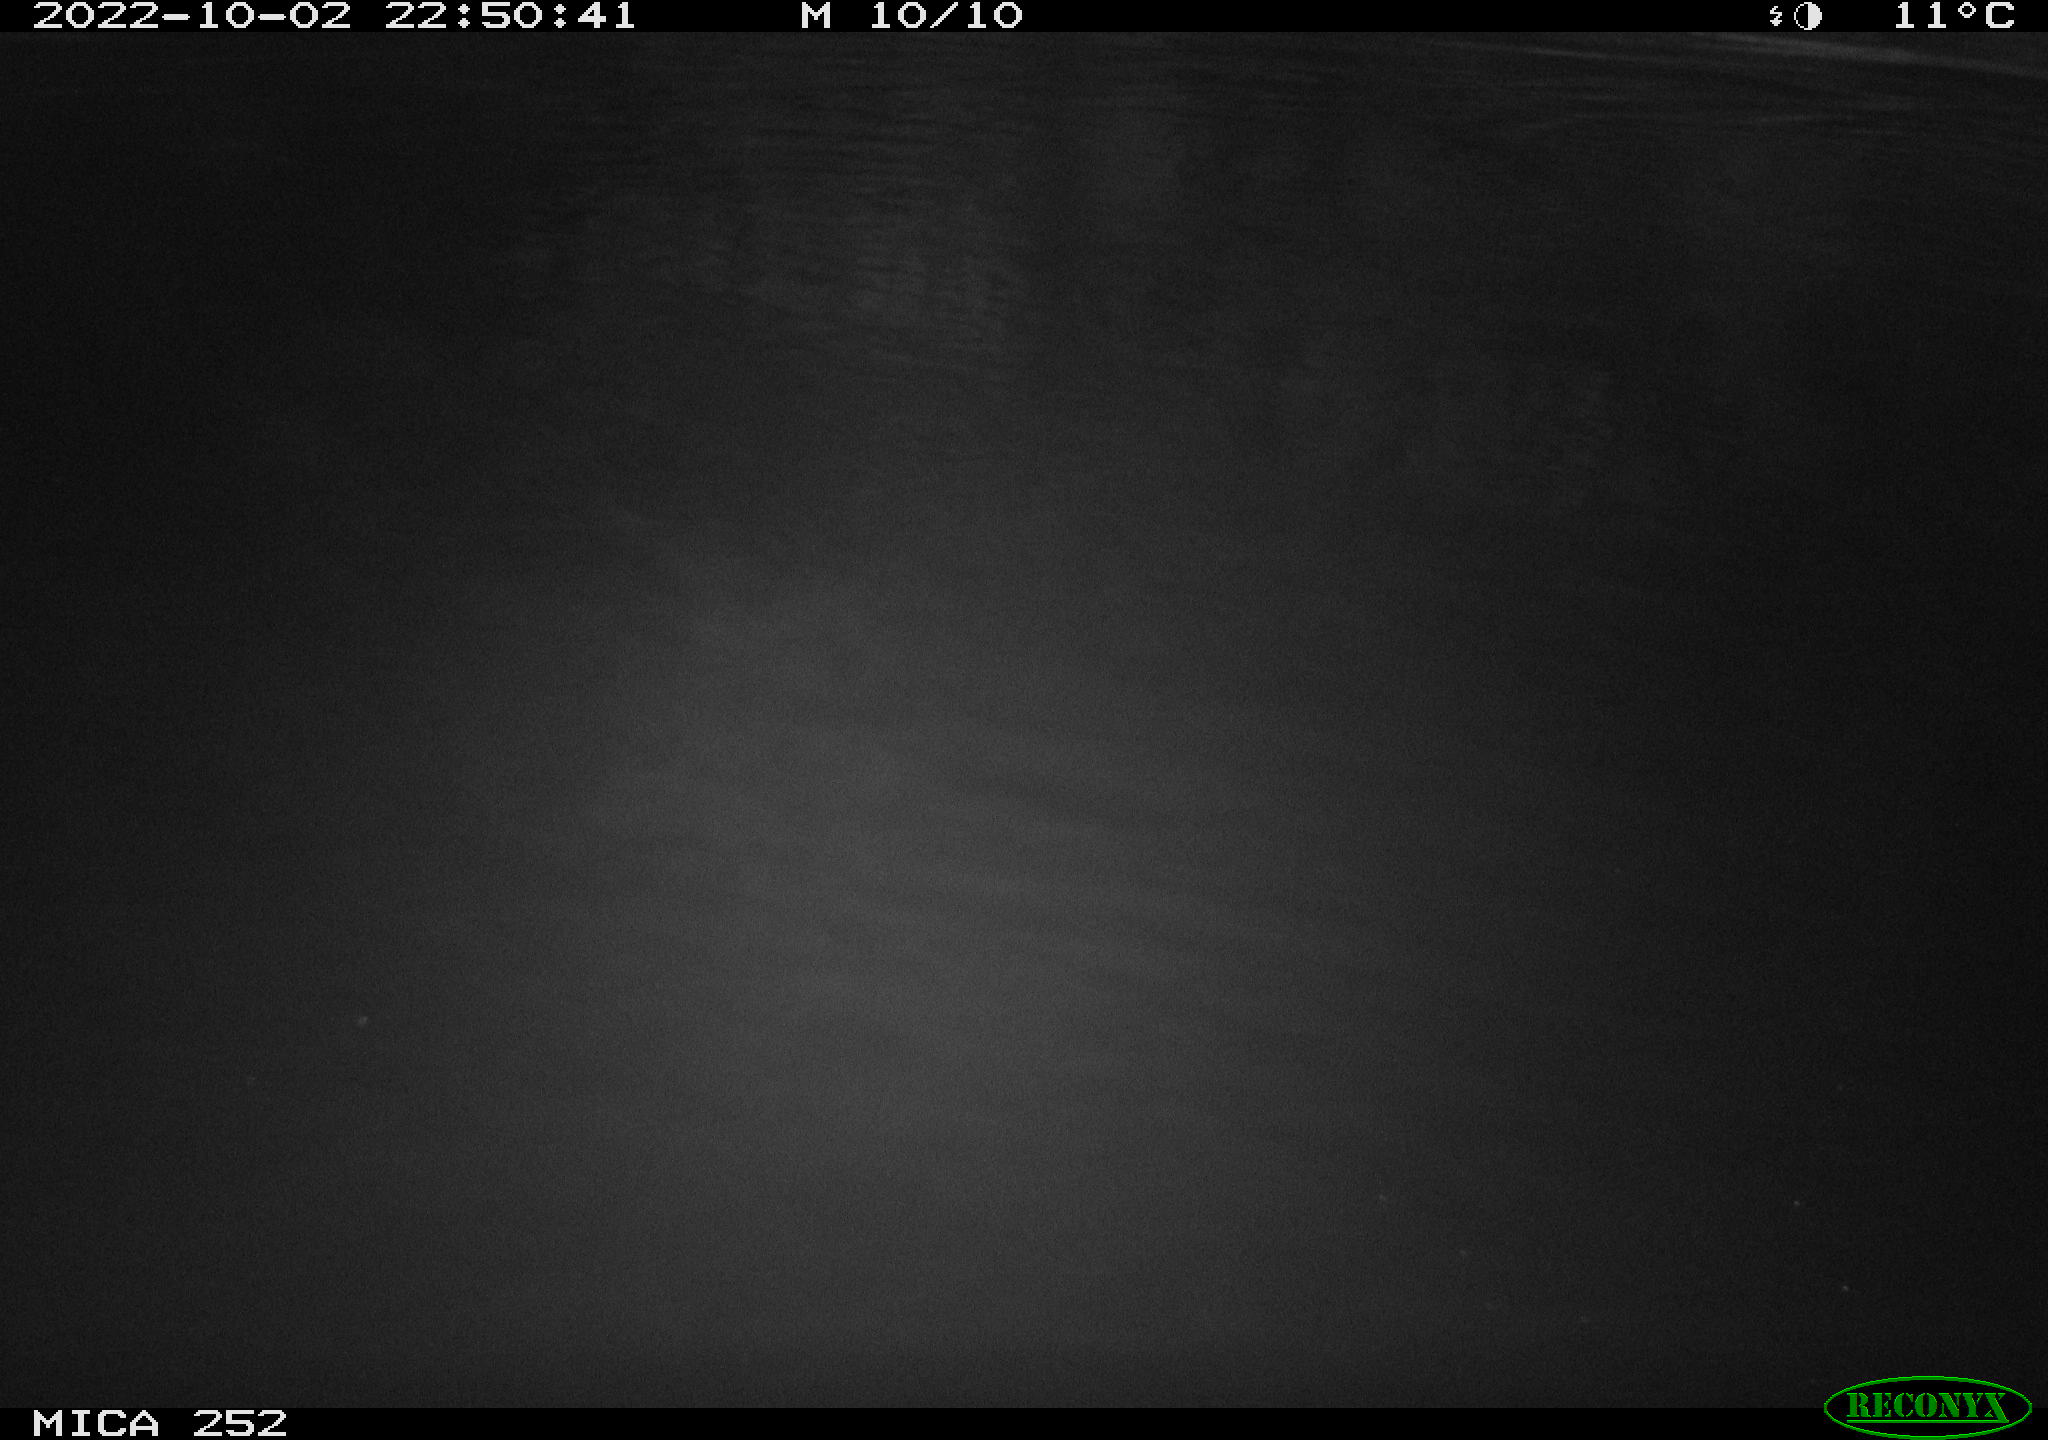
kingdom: Animalia
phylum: Chordata
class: Mammalia
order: Rodentia
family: Castoridae
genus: Castor
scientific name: Castor fiber
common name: Eurasian beaver
